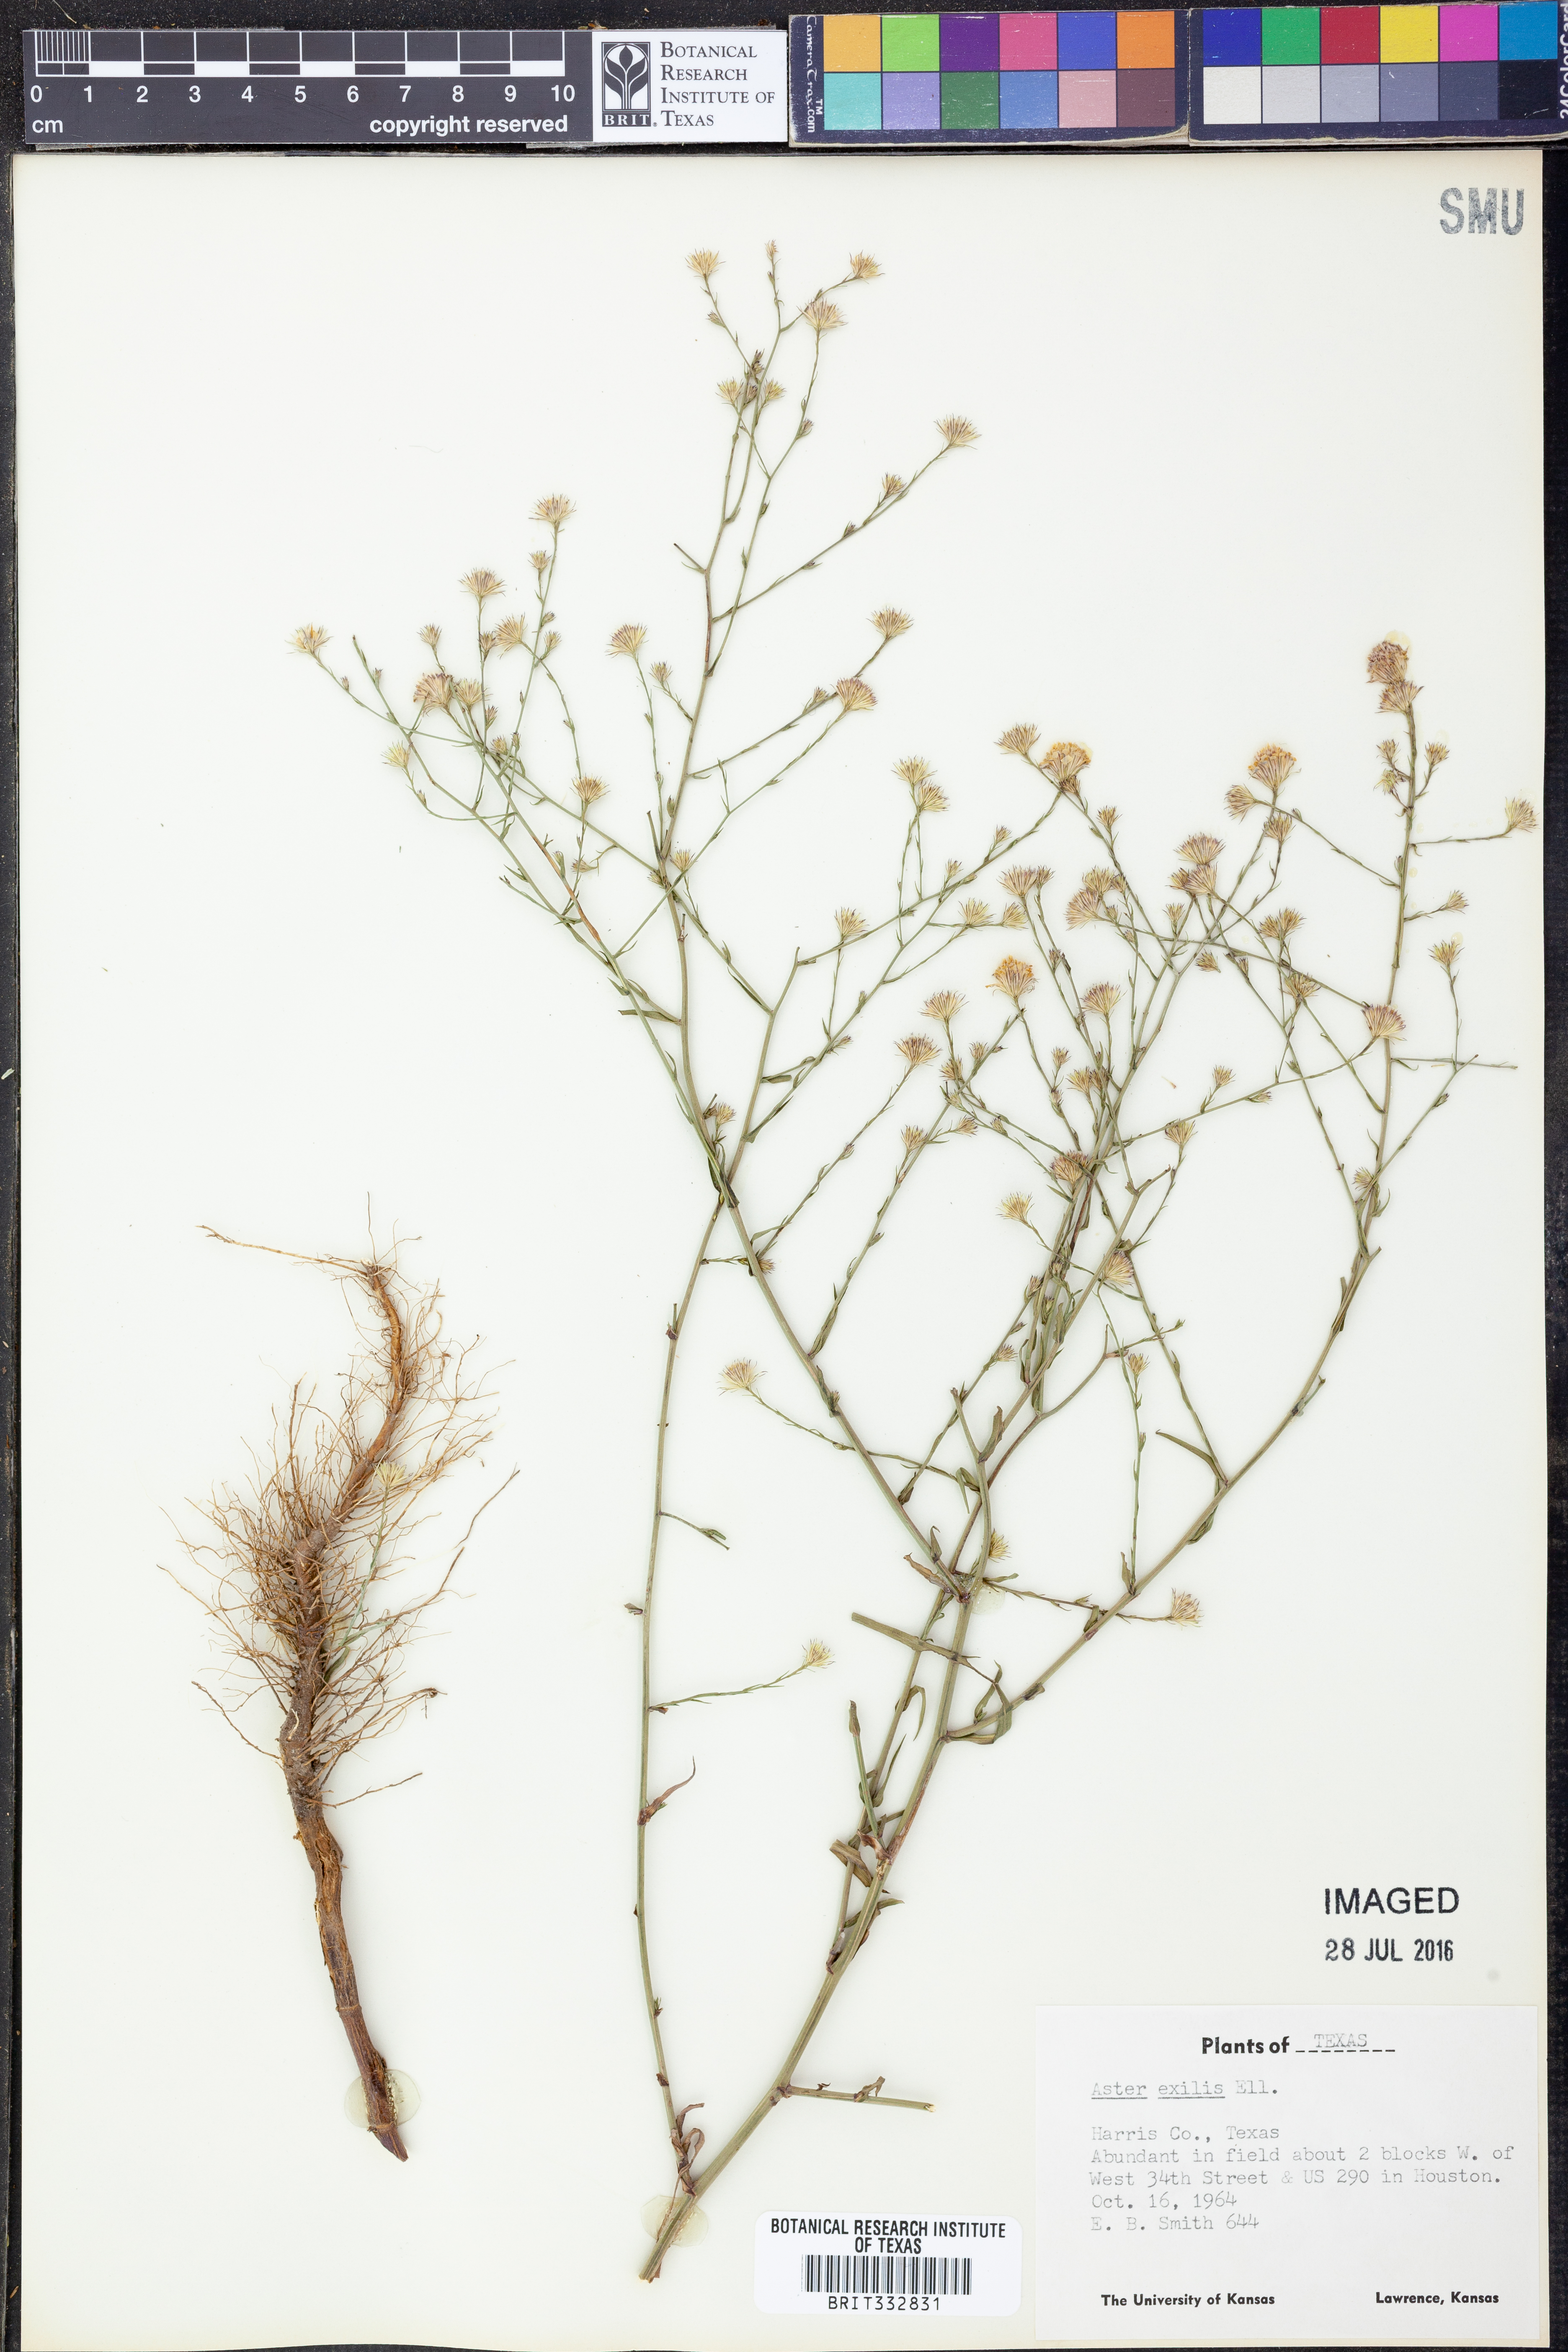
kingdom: Plantae
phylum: Tracheophyta
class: Magnoliopsida
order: Asterales
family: Asteraceae
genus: Symphyotrichum
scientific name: Symphyotrichum expansum
